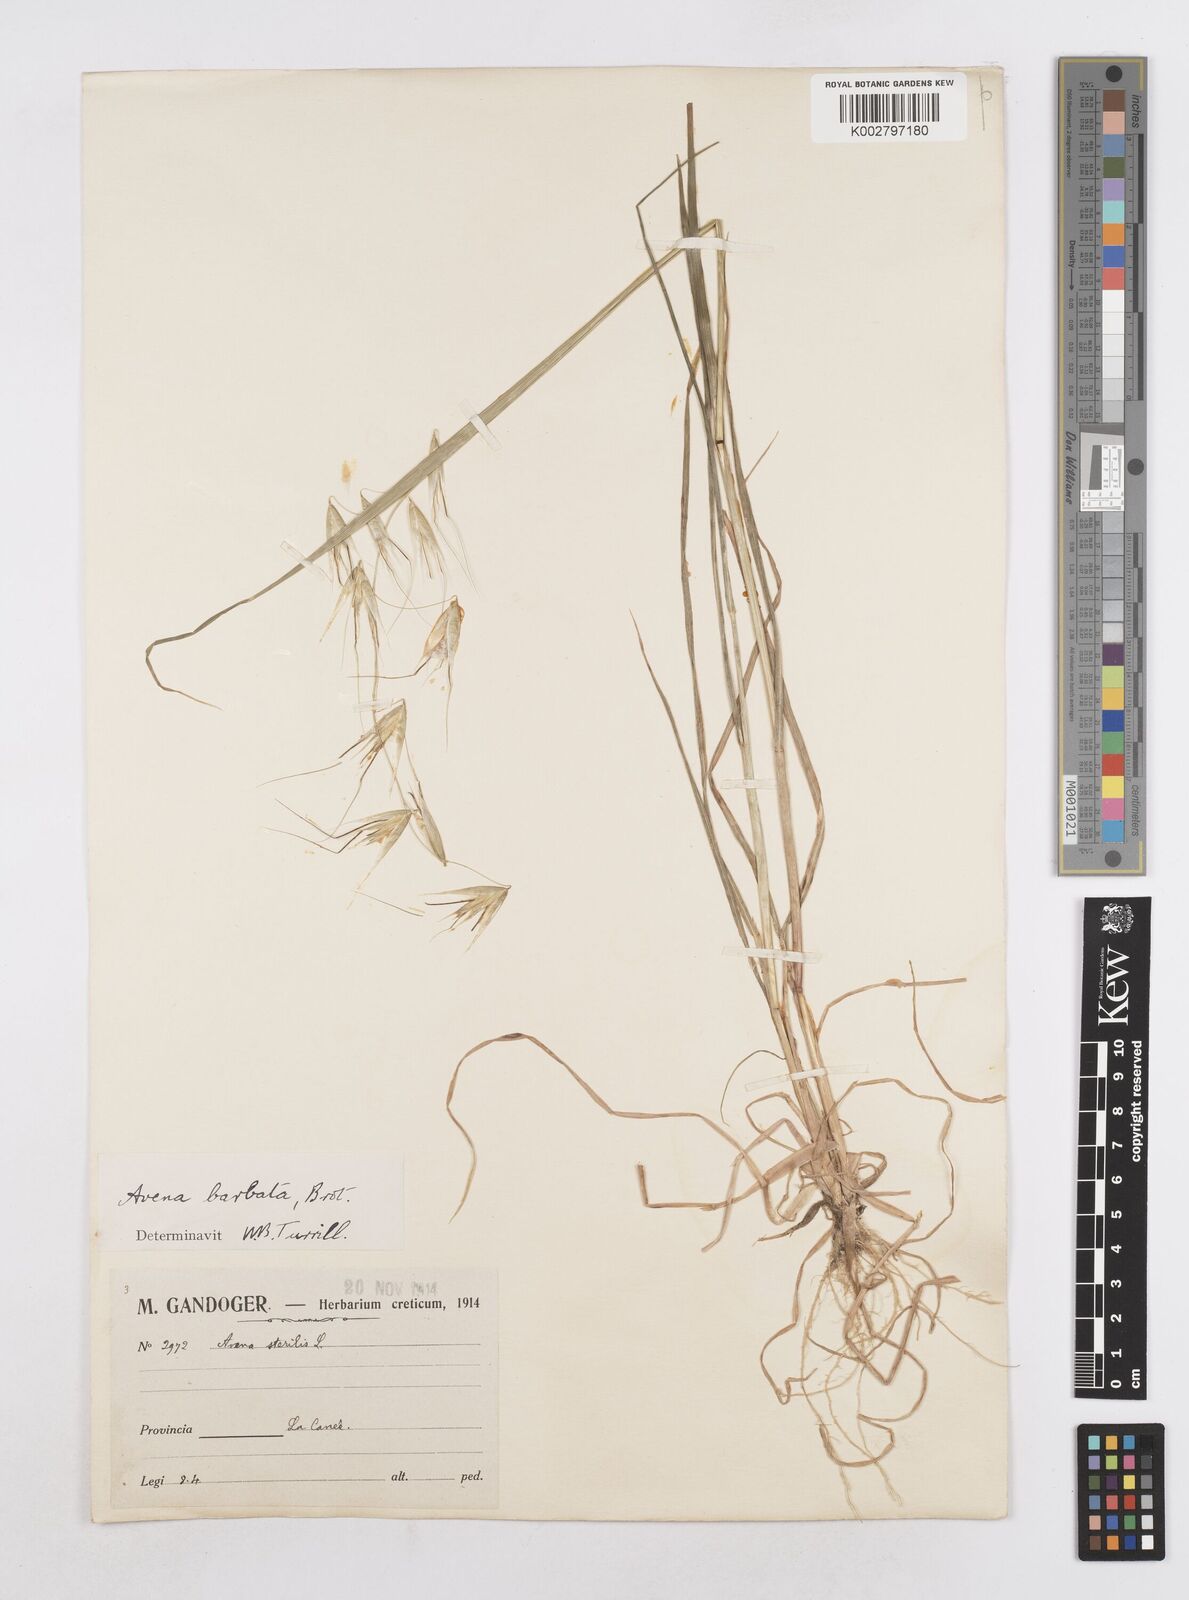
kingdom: Plantae
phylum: Tracheophyta
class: Liliopsida
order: Poales
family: Poaceae
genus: Avena
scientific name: Avena
